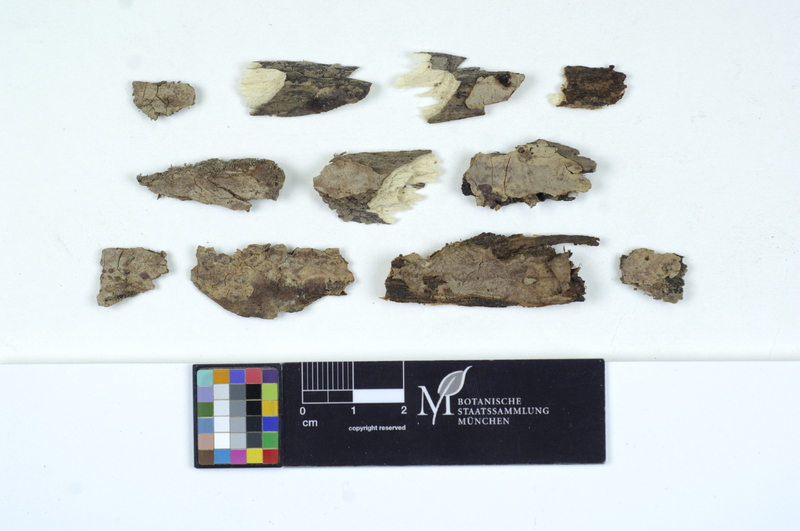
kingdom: Fungi
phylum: Basidiomycota
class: Pucciniomycetes
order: Helicobasidiales
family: Helicobasidiaceae
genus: Helicobasidium
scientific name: Helicobasidium purpureum
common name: Violet root rot
